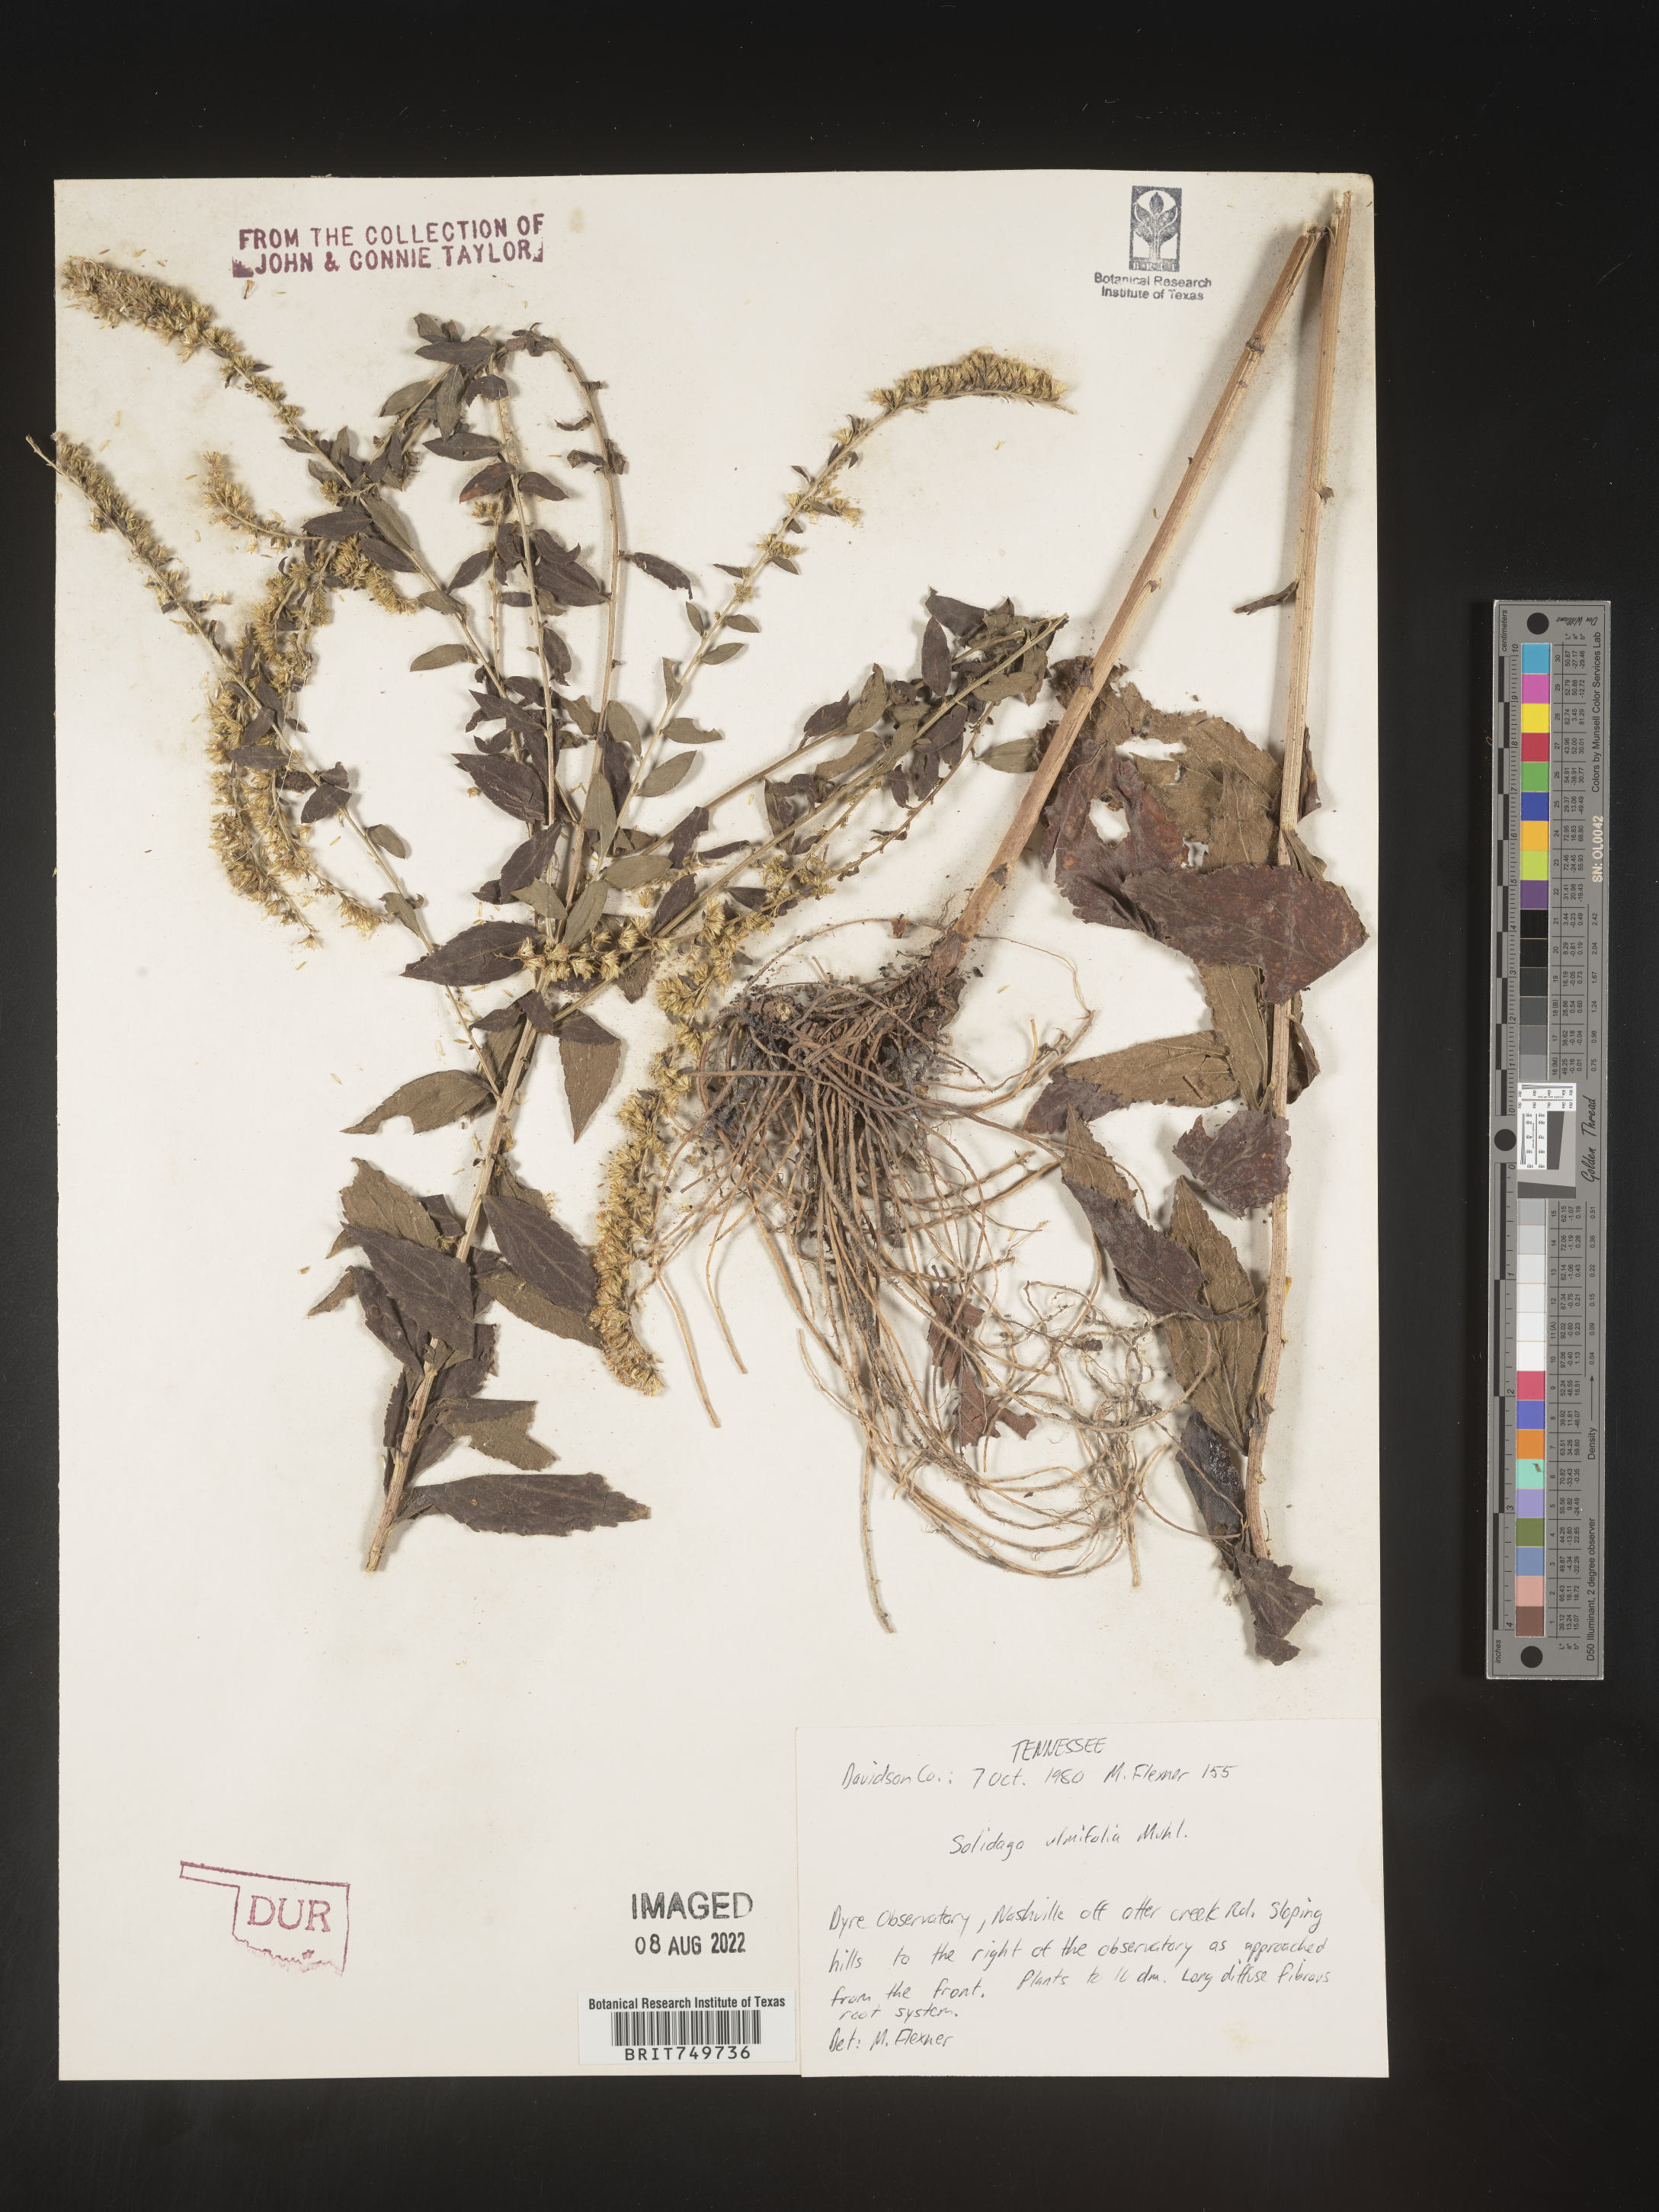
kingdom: Plantae
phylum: Tracheophyta
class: Magnoliopsida
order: Asterales
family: Asteraceae
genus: Solidago
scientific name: Solidago ulmifolia
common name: Elm-leaf goldenrod
